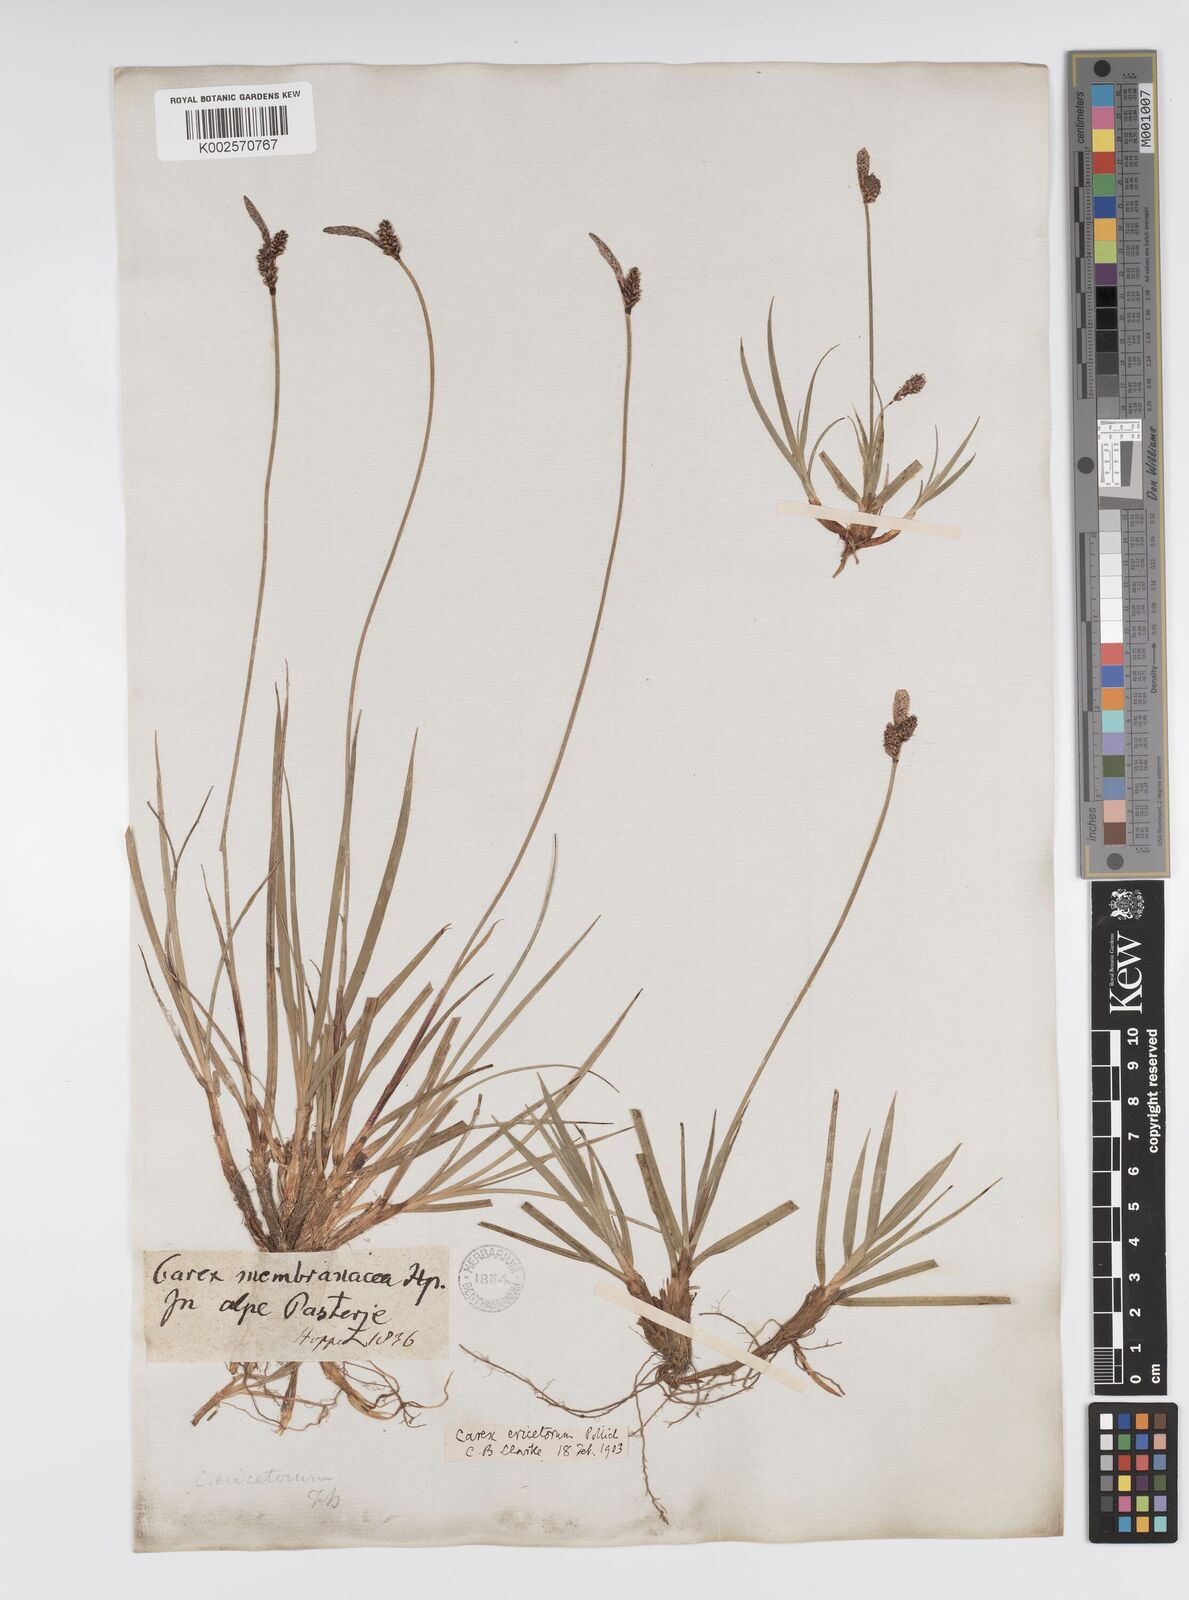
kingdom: Plantae
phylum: Tracheophyta
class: Liliopsida
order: Poales
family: Cyperaceae
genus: Carex
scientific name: Carex ericetorum
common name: Rare spring-sedge
